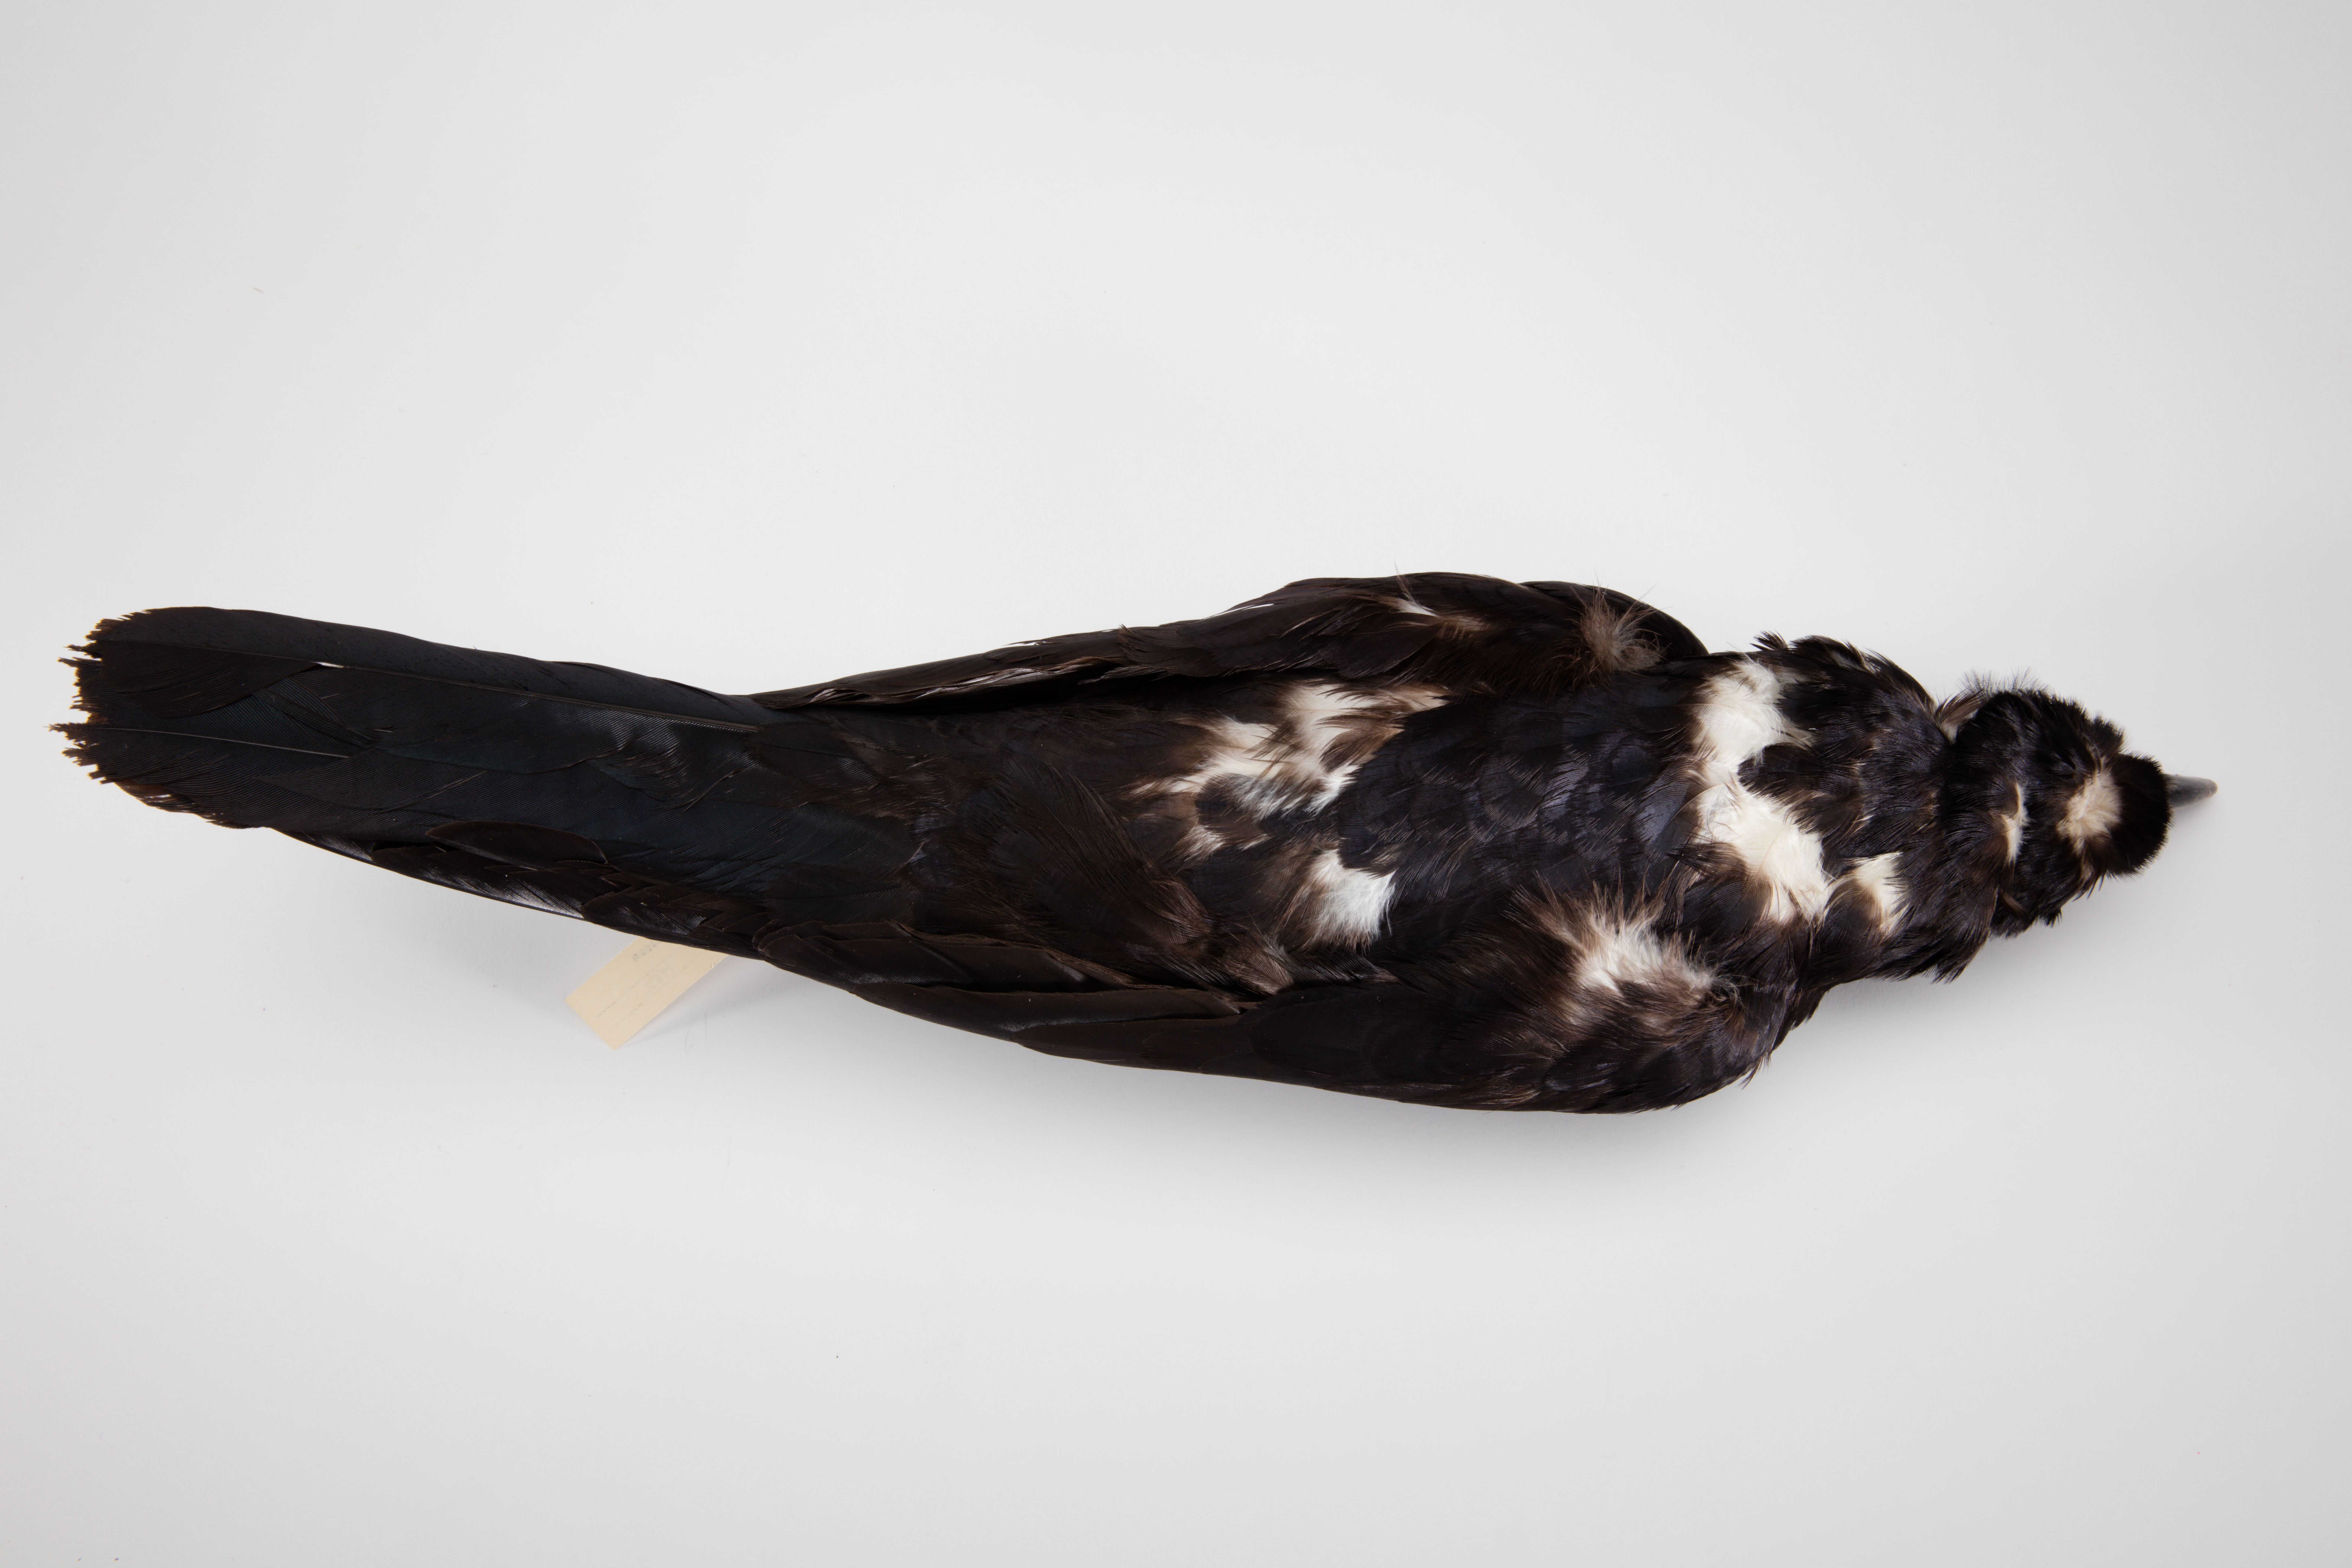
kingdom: Animalia
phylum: Chordata
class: Aves
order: Passeriformes
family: Corvidae
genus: Corvus
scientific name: Corvus orru
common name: Torresian crow
